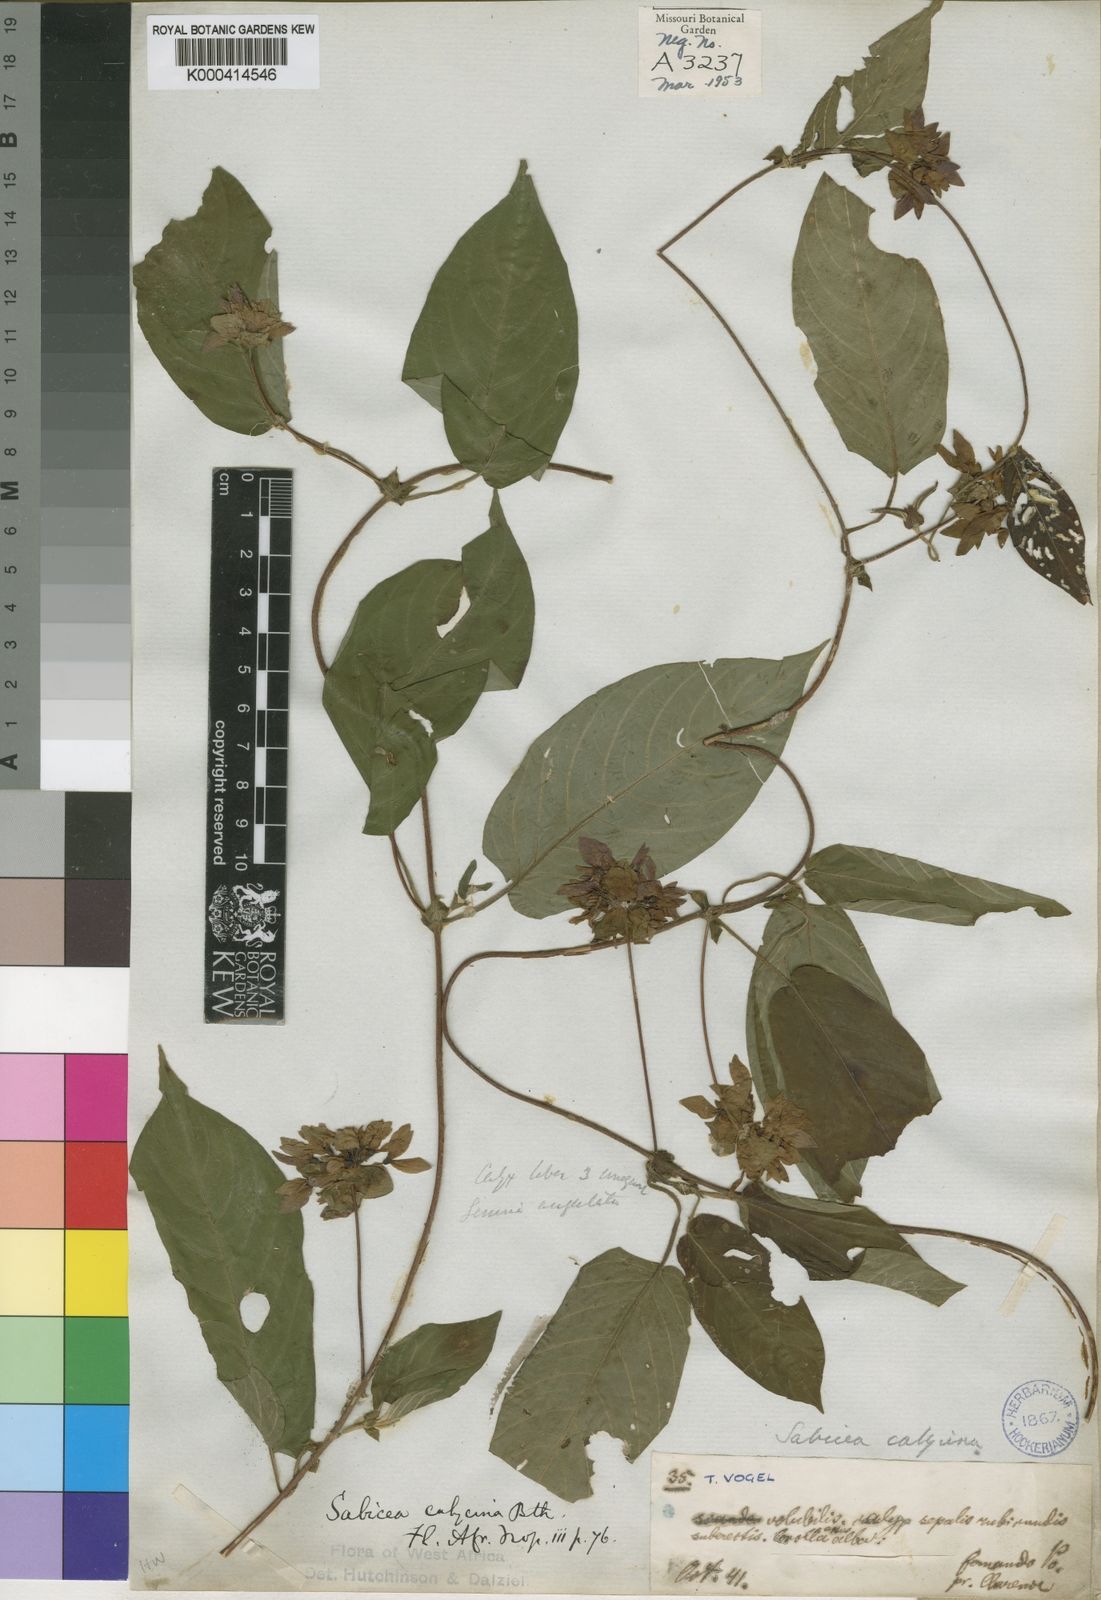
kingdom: Plantae
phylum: Tracheophyta
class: Magnoliopsida
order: Gentianales
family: Rubiaceae
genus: Sabicea
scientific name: Sabicea calycina
